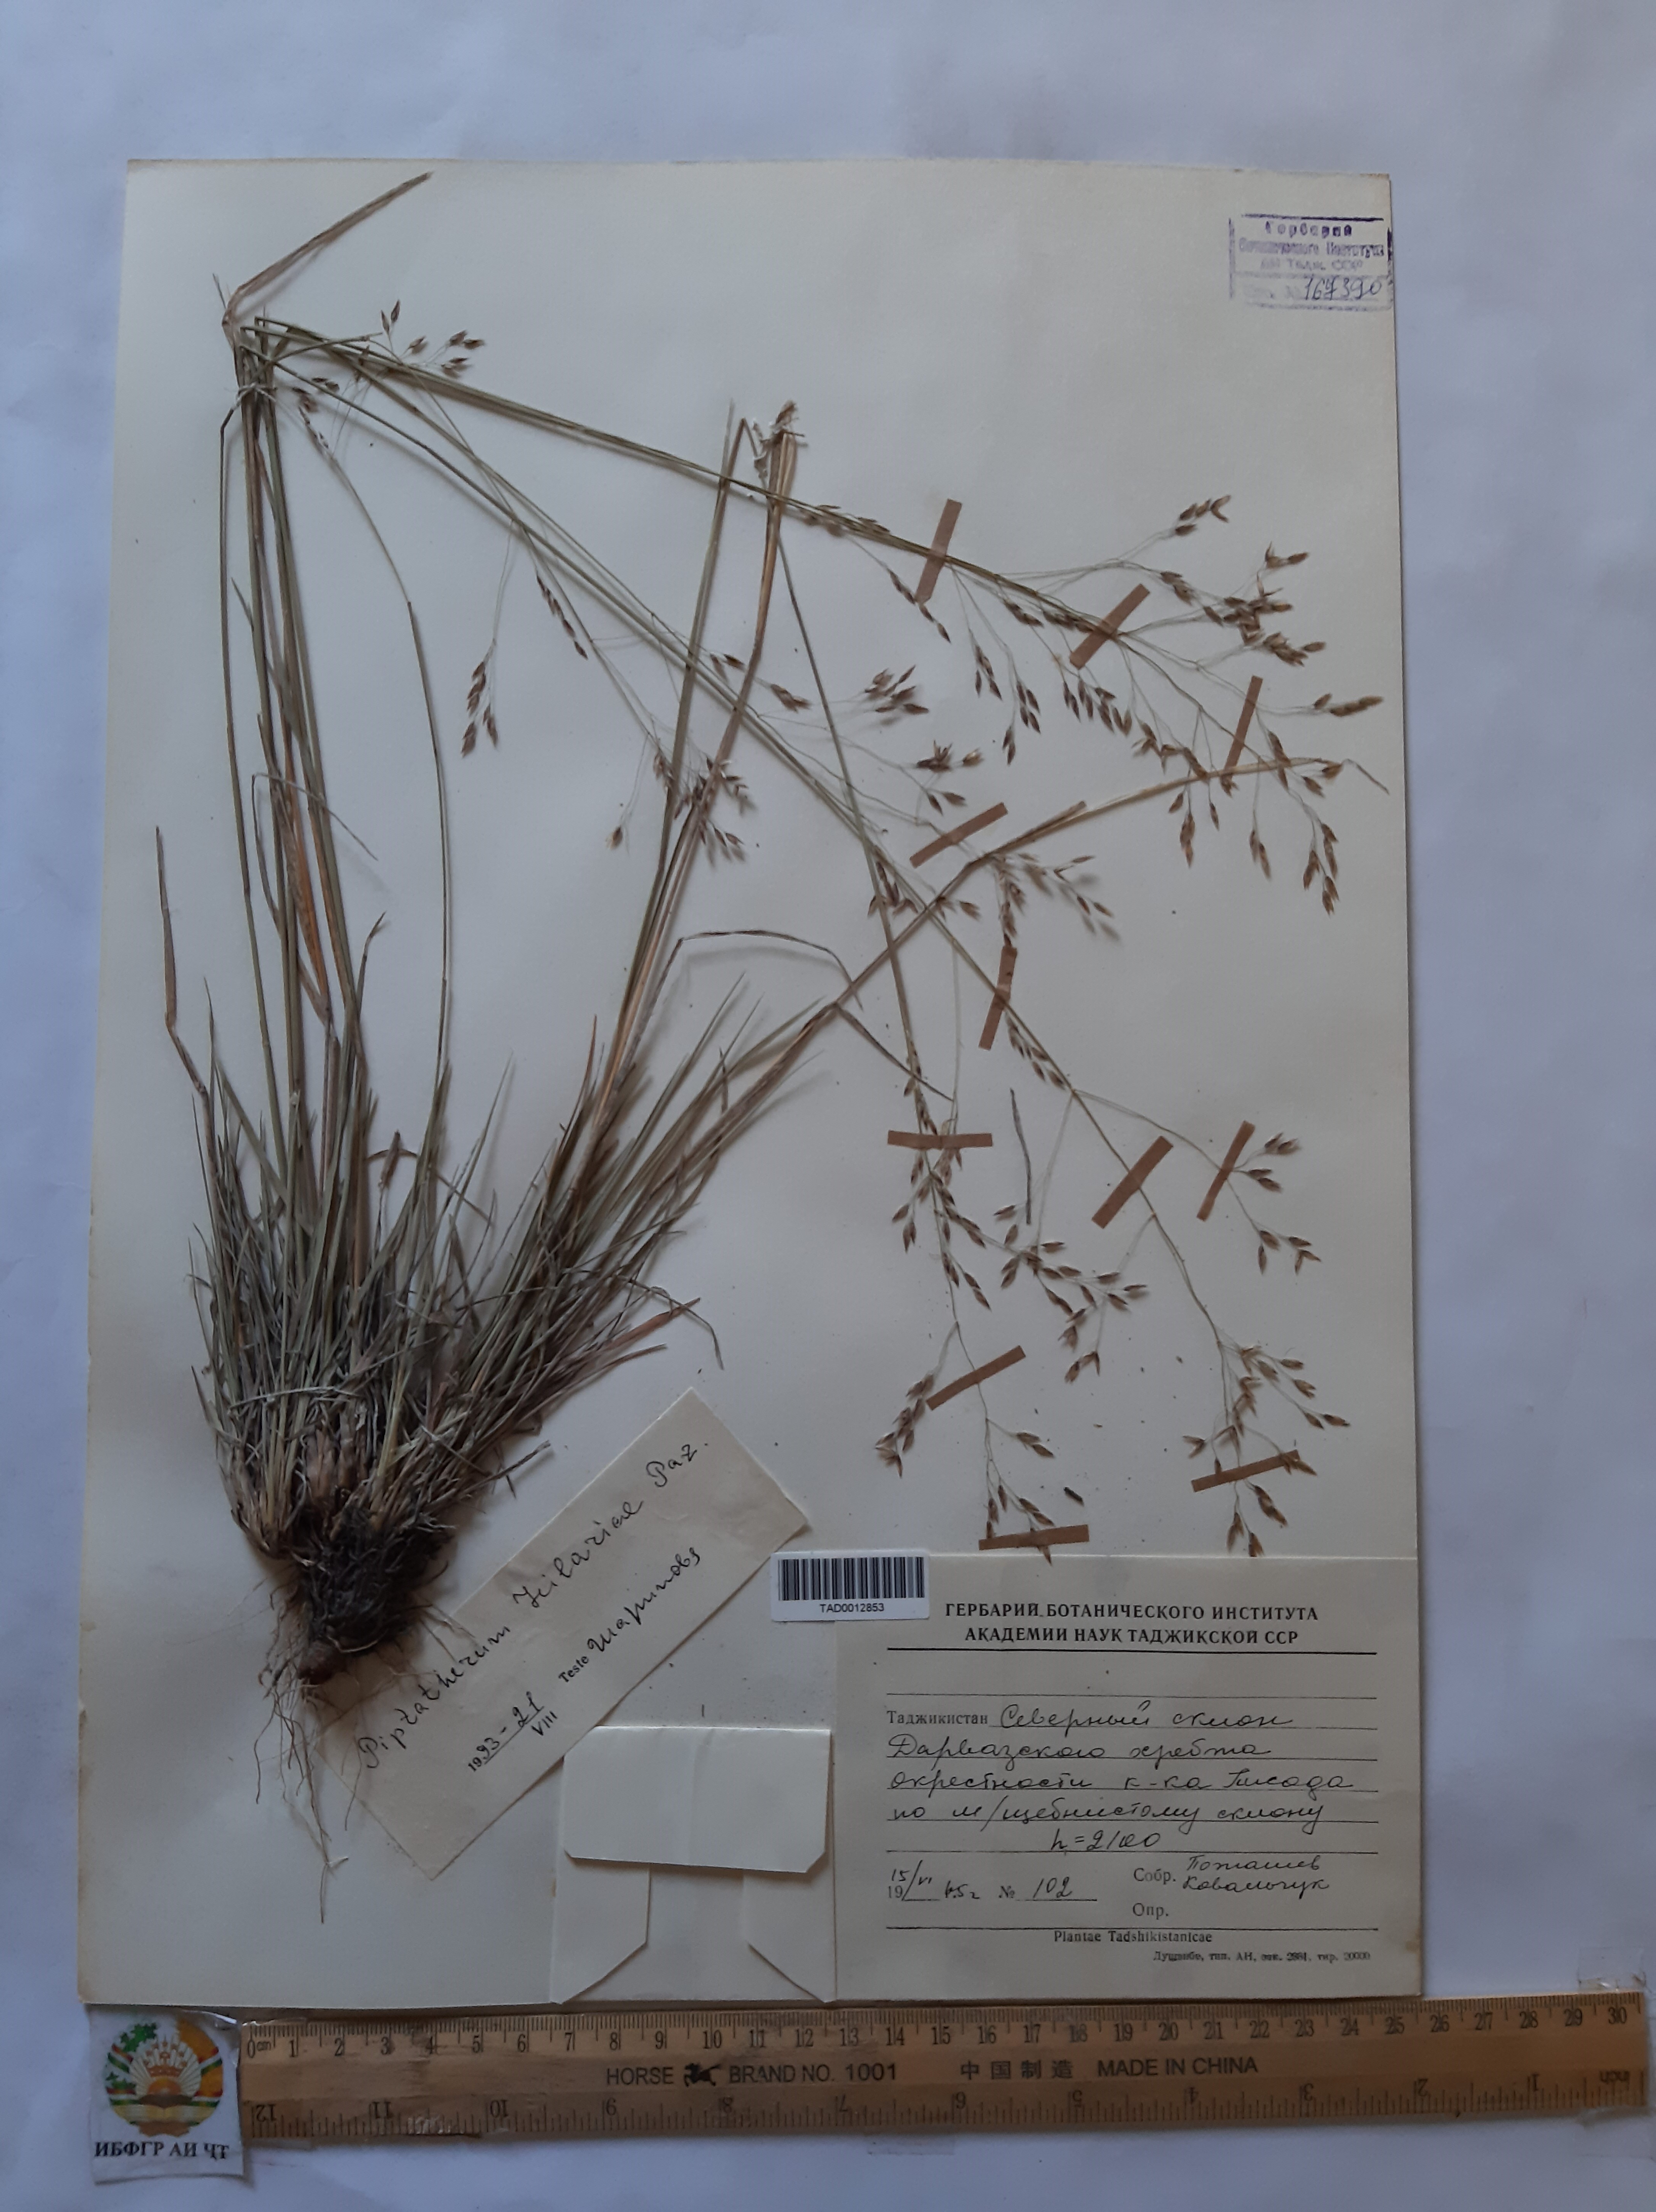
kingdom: Plantae
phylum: Tracheophyta
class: Liliopsida
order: Poales
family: Poaceae
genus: Piptatherum
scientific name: Piptatherum hilariae
